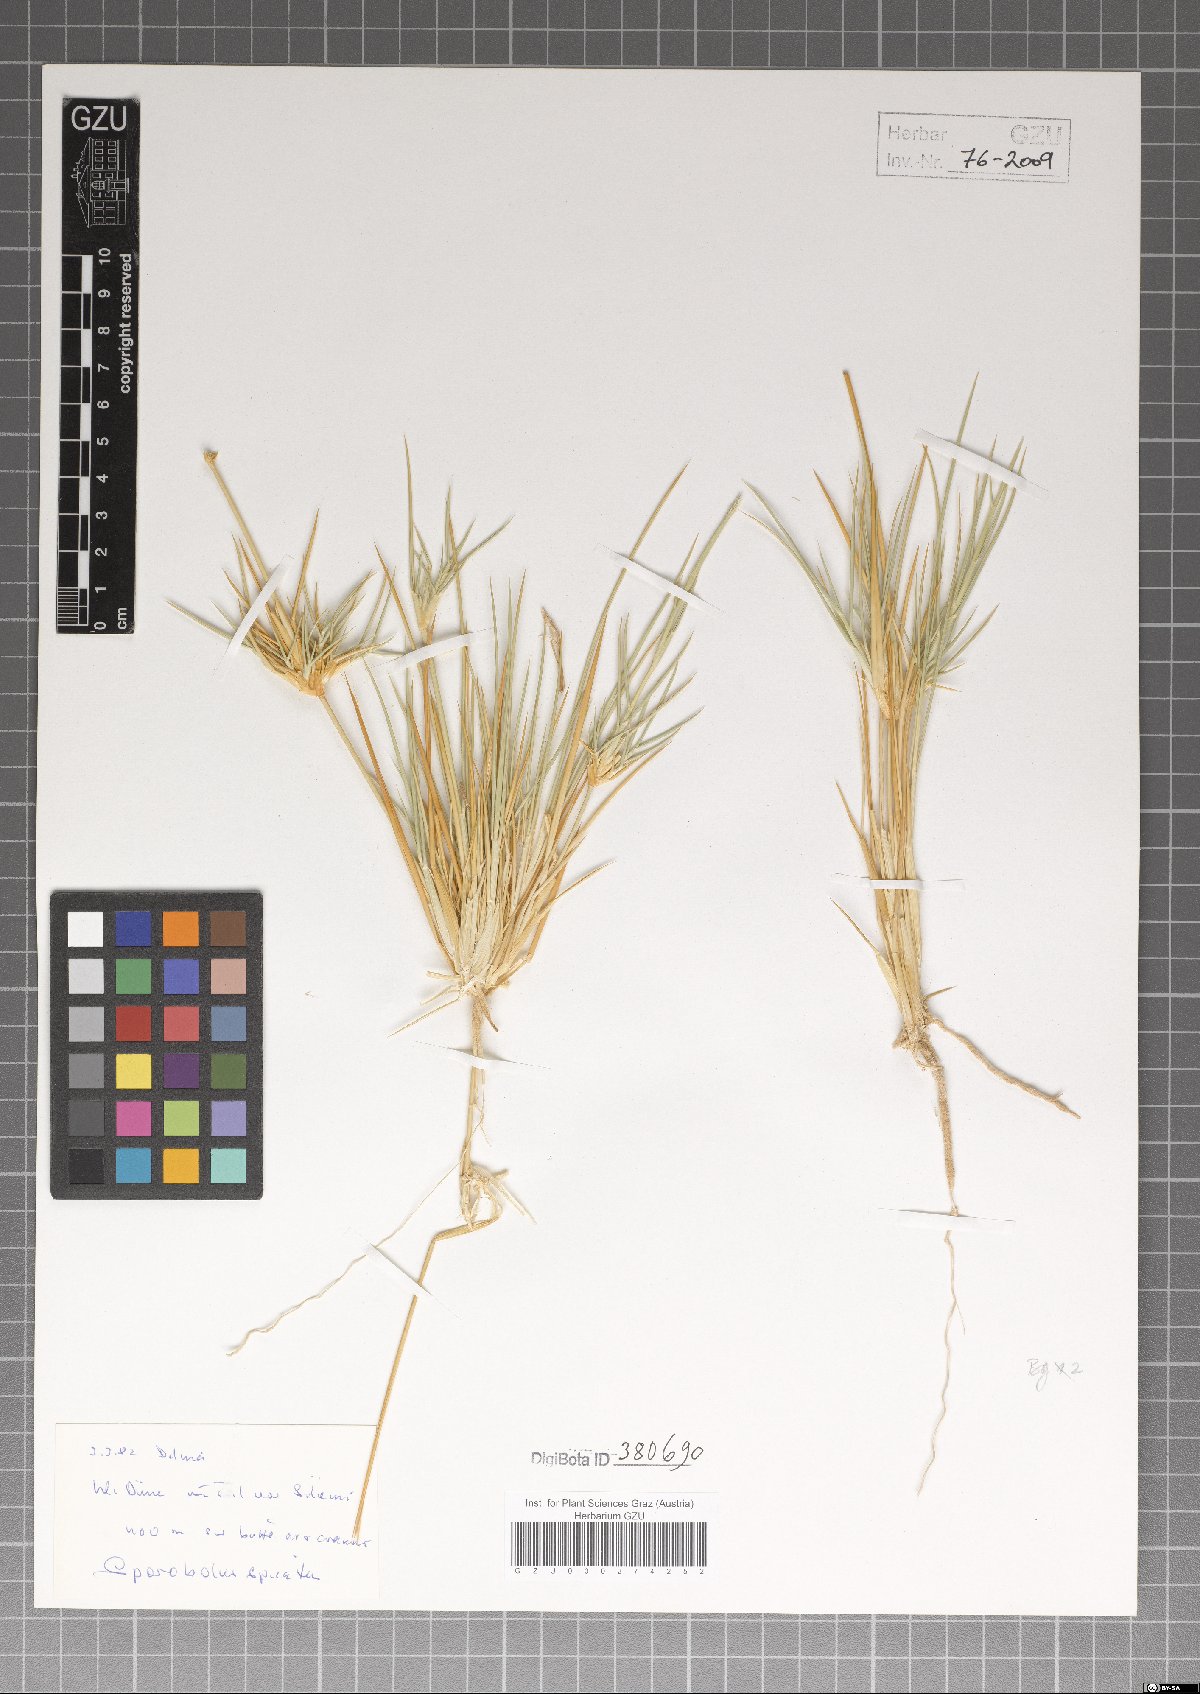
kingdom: Plantae
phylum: Tracheophyta
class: Liliopsida
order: Poales
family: Poaceae
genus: Sporobolus
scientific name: Sporobolus spicatus
